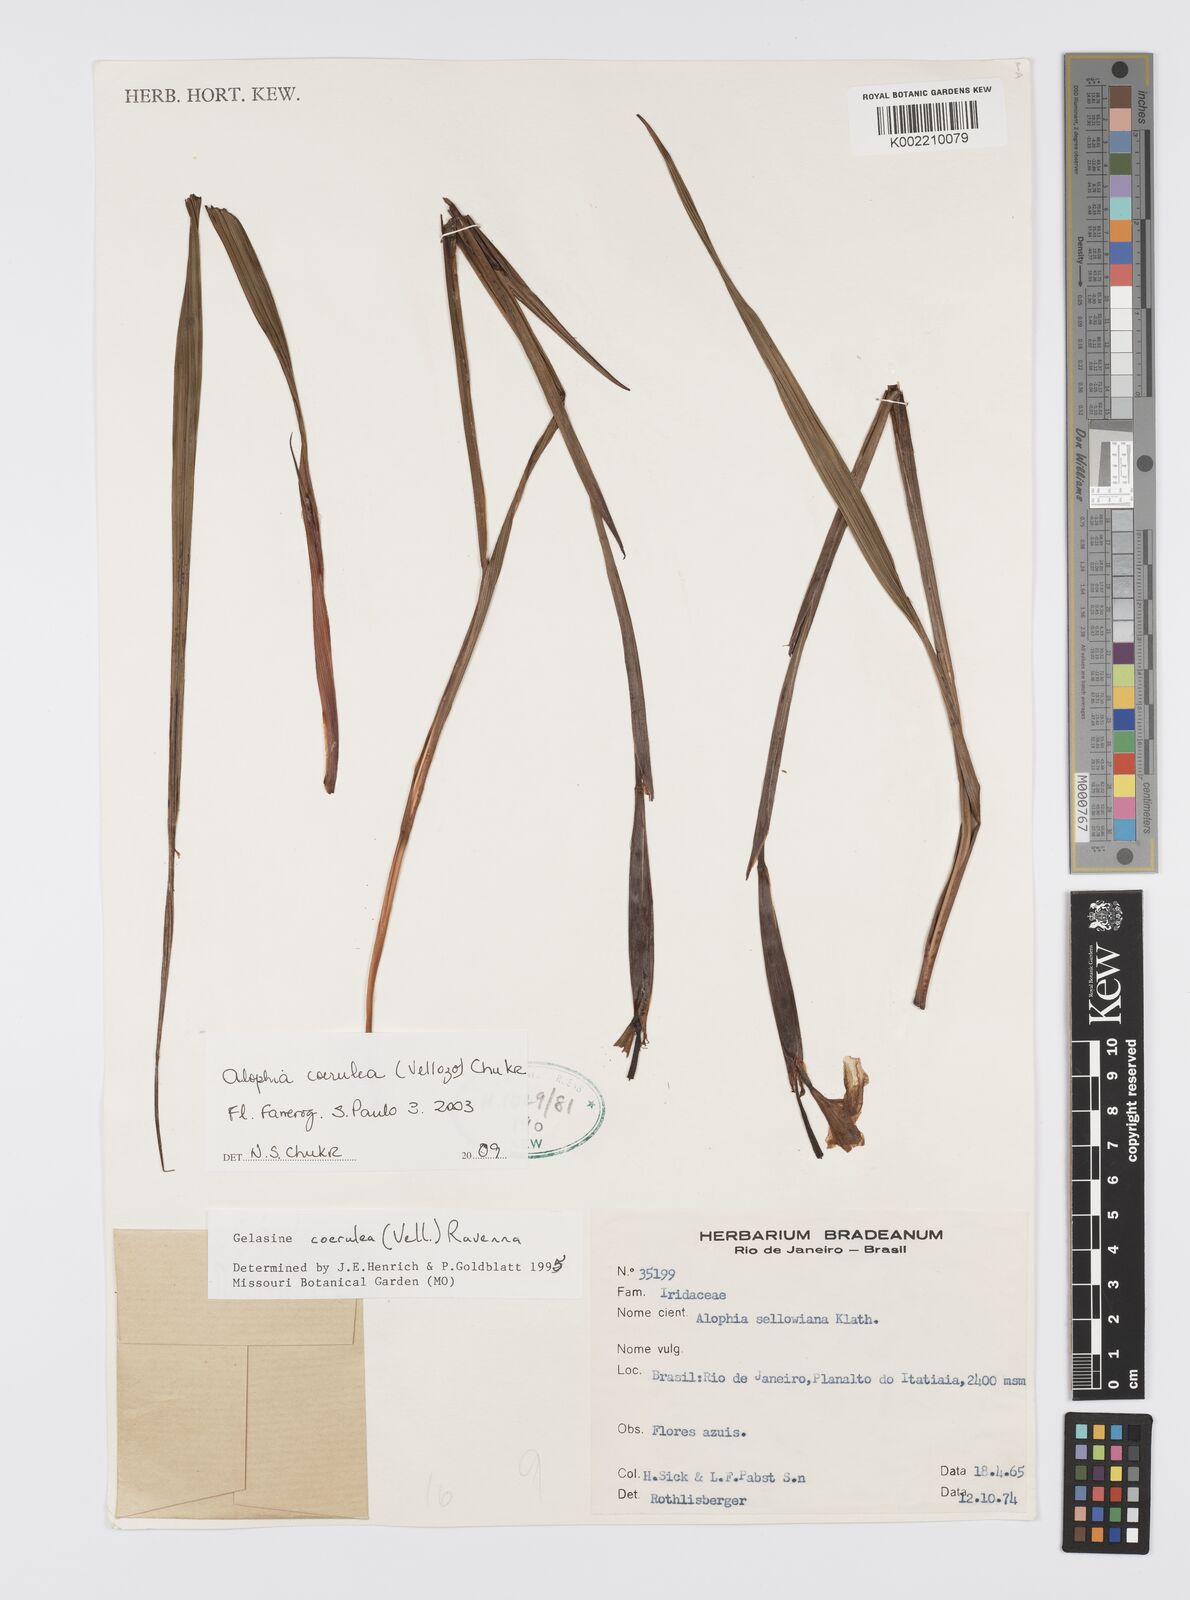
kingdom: Plantae
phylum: Tracheophyta
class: Liliopsida
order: Asparagales
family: Iridaceae
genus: Gelasine
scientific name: Gelasine coerulea
